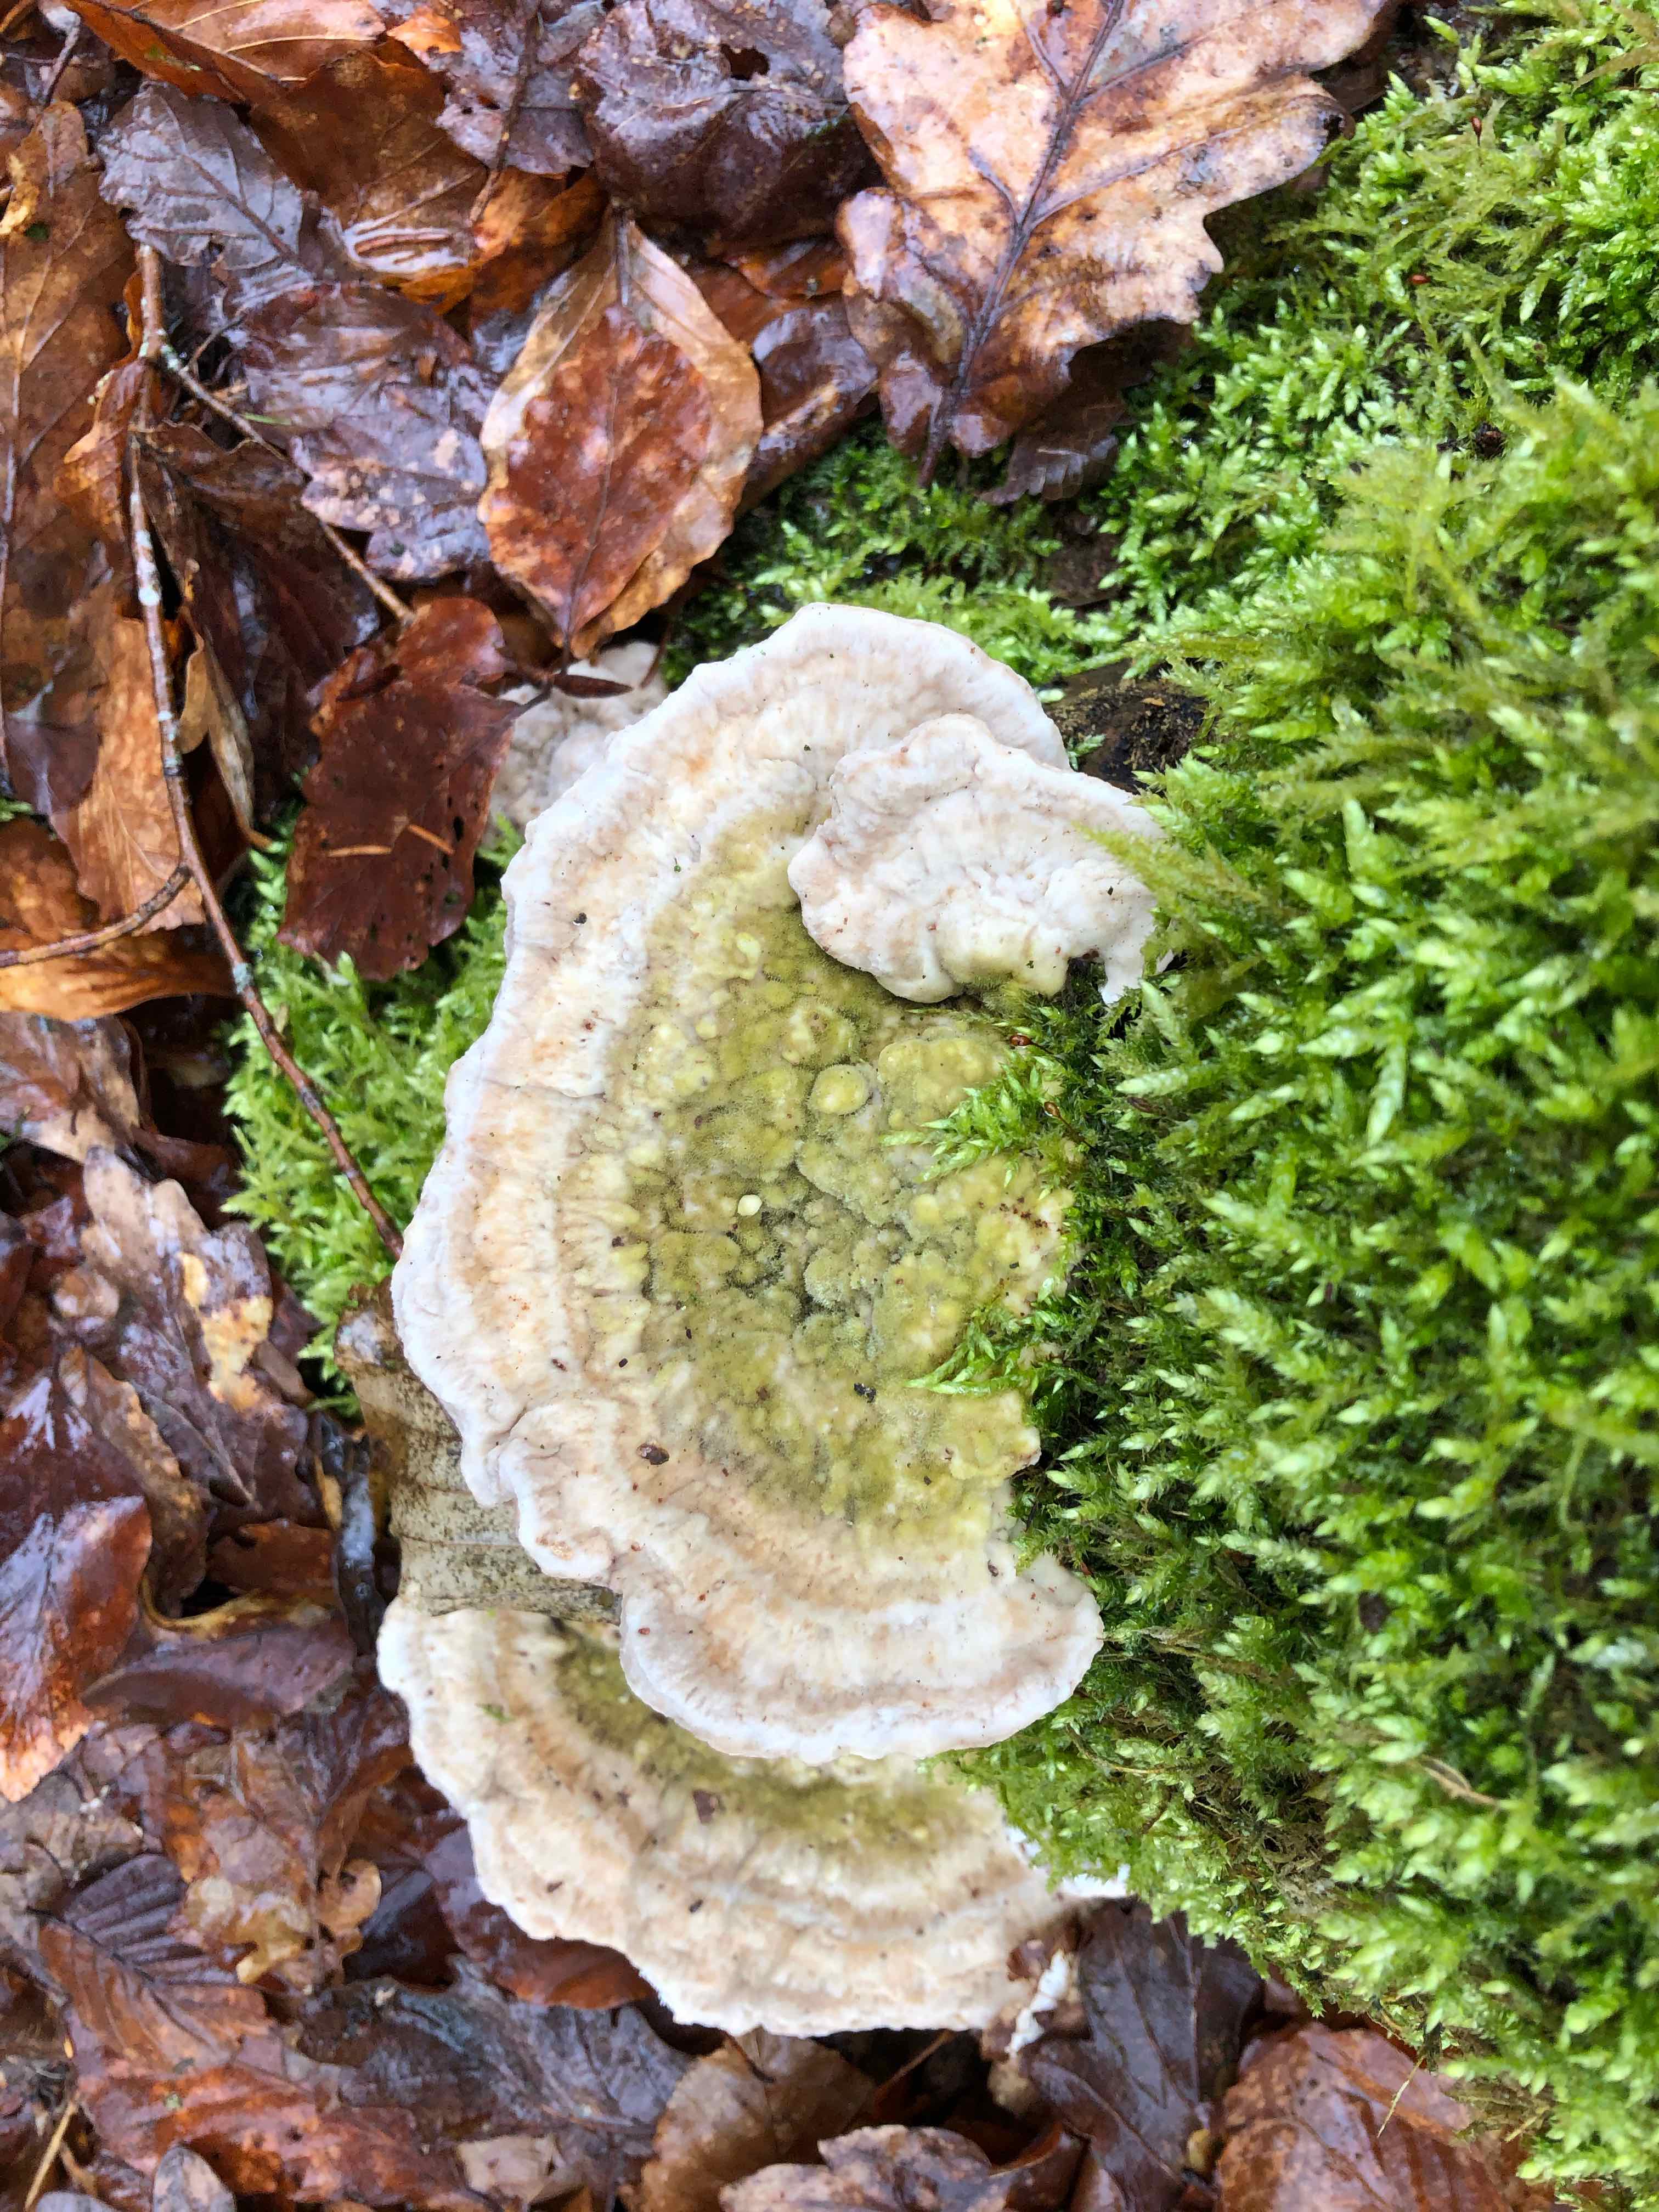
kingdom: Fungi
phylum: Basidiomycota
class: Agaricomycetes
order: Polyporales
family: Polyporaceae
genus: Trametes
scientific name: Trametes gibbosa
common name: puklet læderporesvamp
